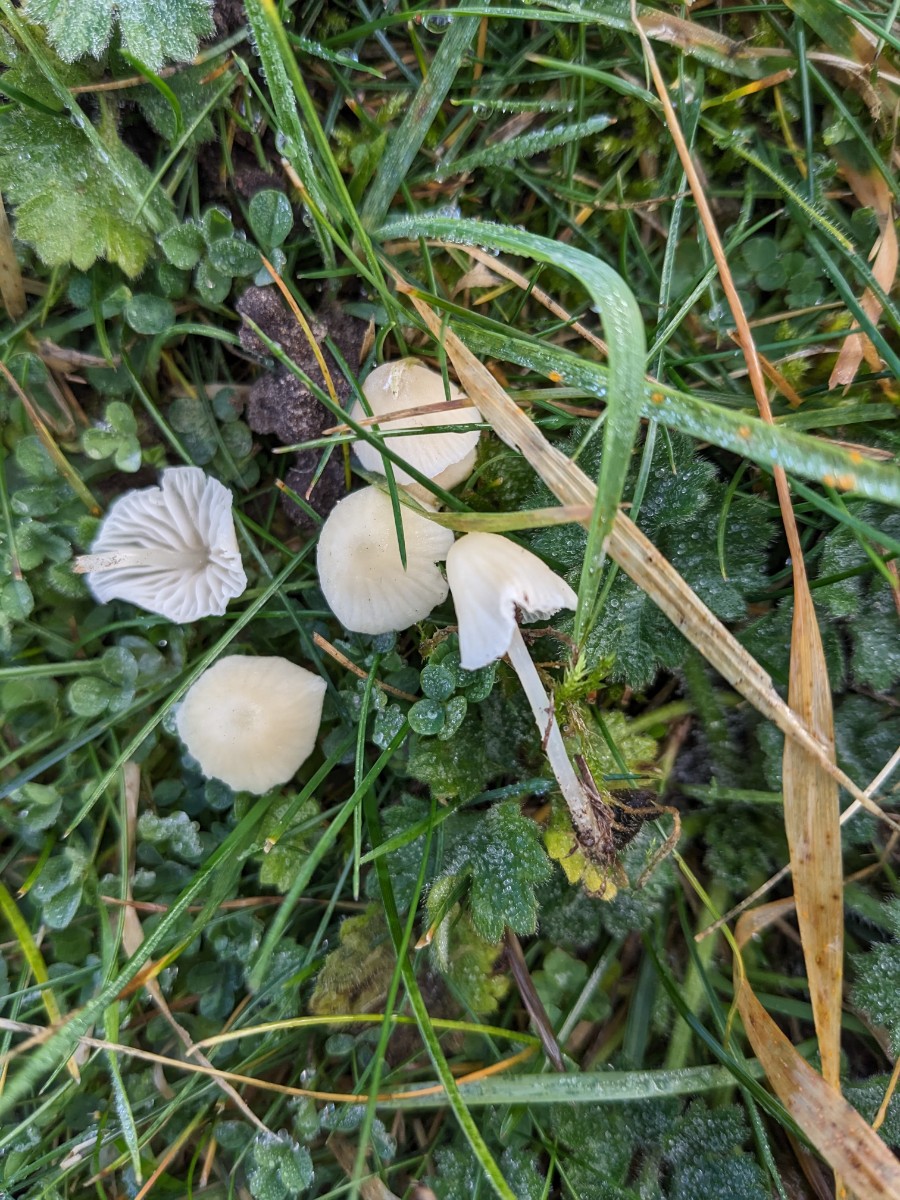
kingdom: Fungi
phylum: Basidiomycota
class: Agaricomycetes
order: Agaricales
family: Mycenaceae
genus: Atheniella
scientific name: Atheniella flavoalba
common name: gulhvid huesvamp
